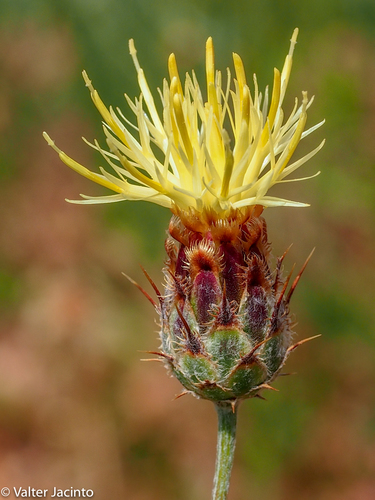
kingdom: Plantae
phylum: Tracheophyta
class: Magnoliopsida
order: Asterales
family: Asteraceae
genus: Centaurea
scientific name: Centaurea occasus
